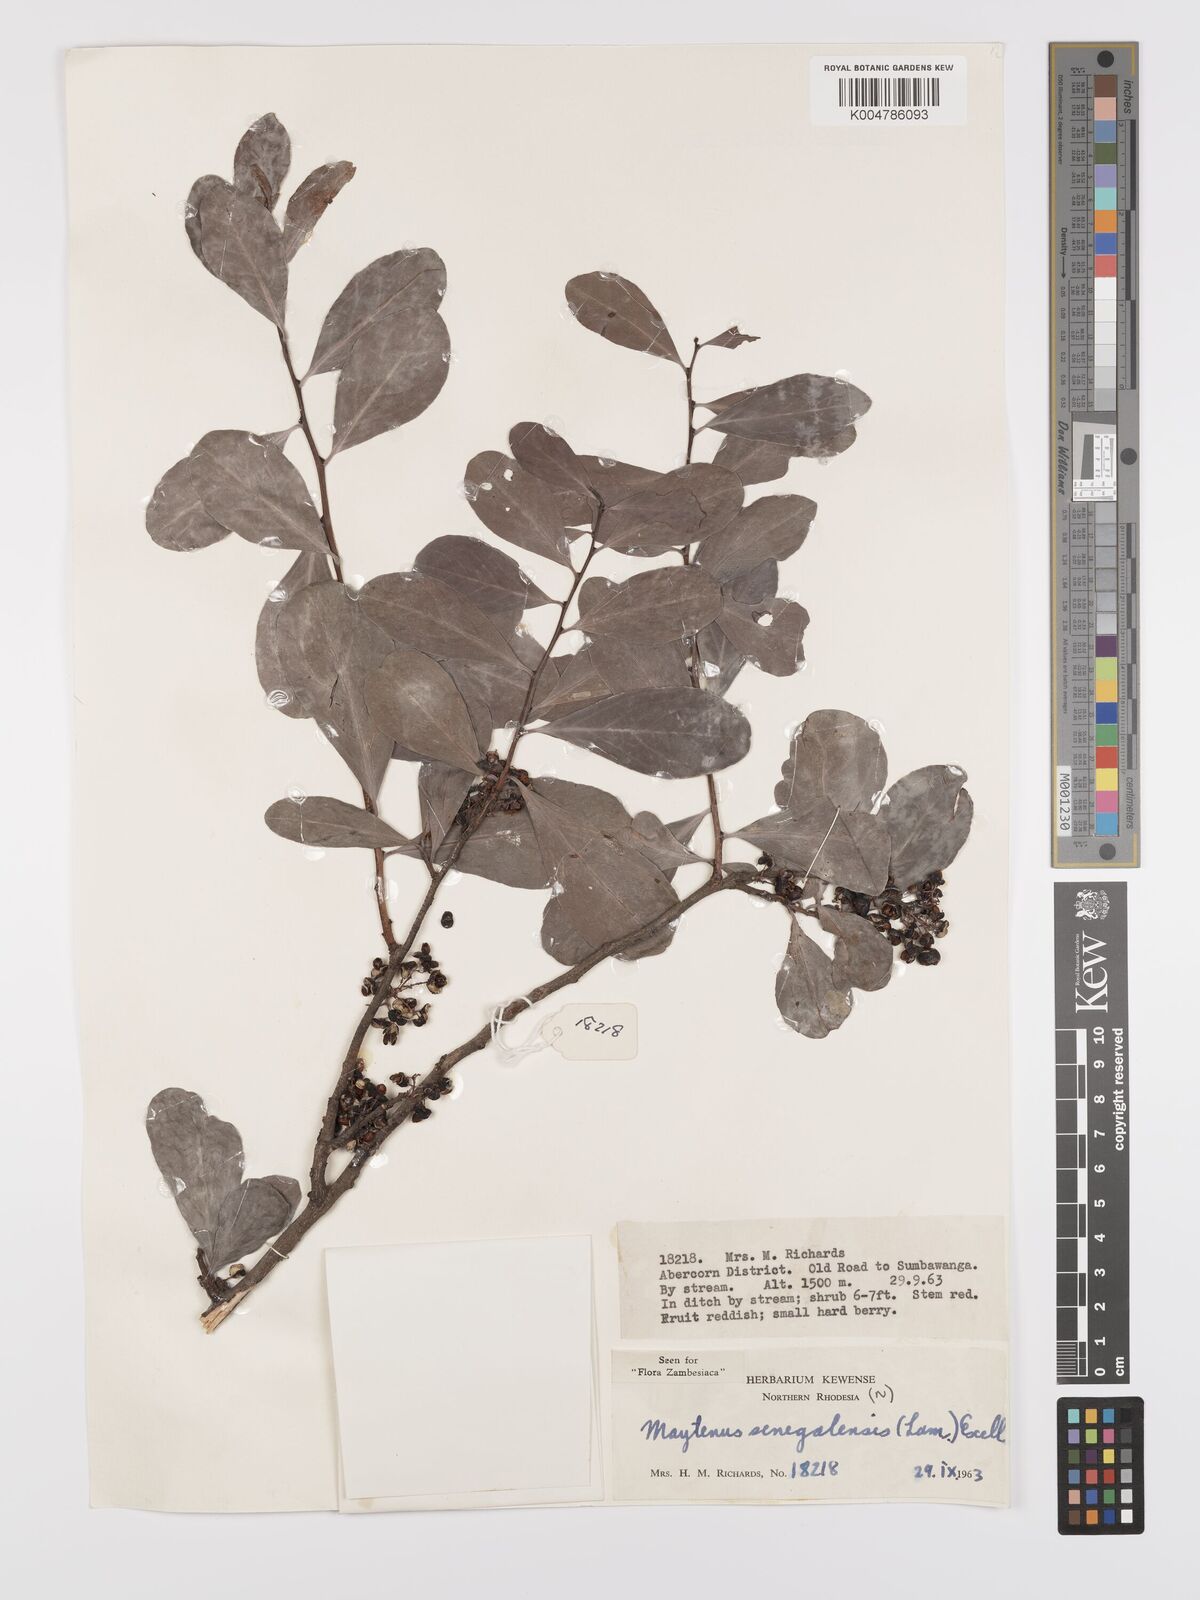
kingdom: Plantae
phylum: Tracheophyta
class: Magnoliopsida
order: Celastrales
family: Celastraceae
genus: Gymnosporia
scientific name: Gymnosporia senegalensis
